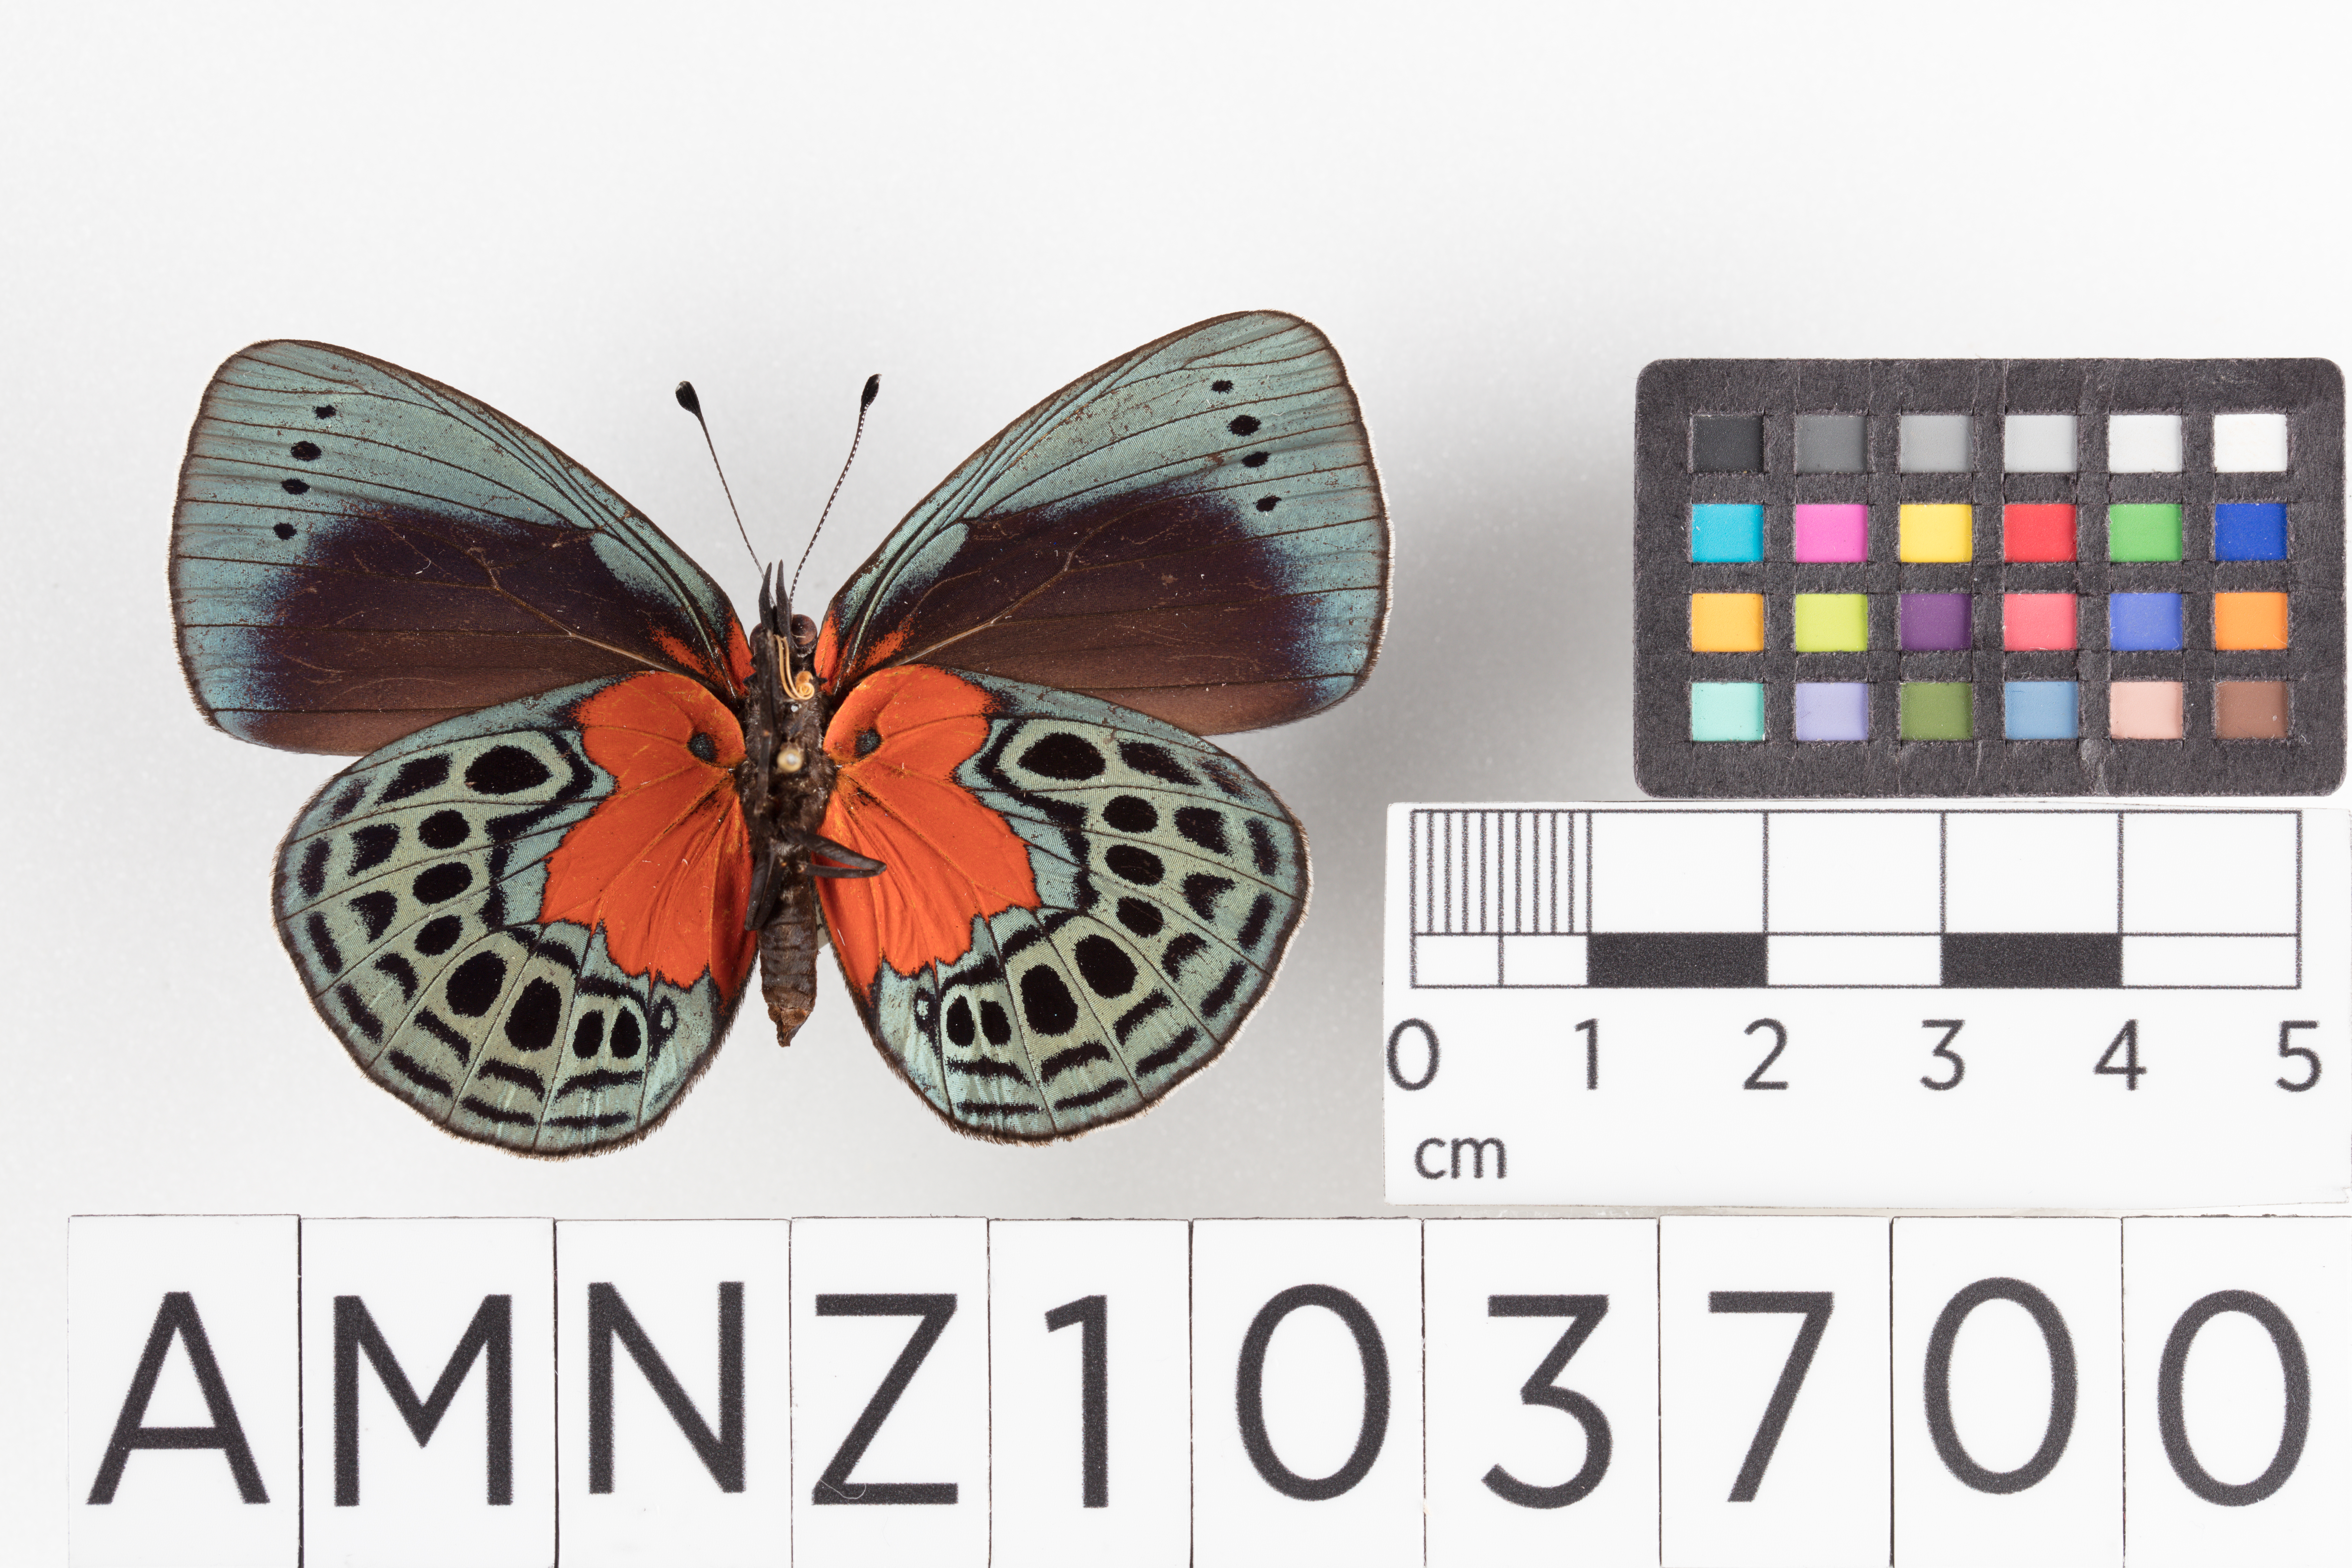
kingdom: Animalia
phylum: Arthropoda
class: Insecta
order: Lepidoptera
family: Nymphalidae
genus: Asterope
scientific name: Asterope
